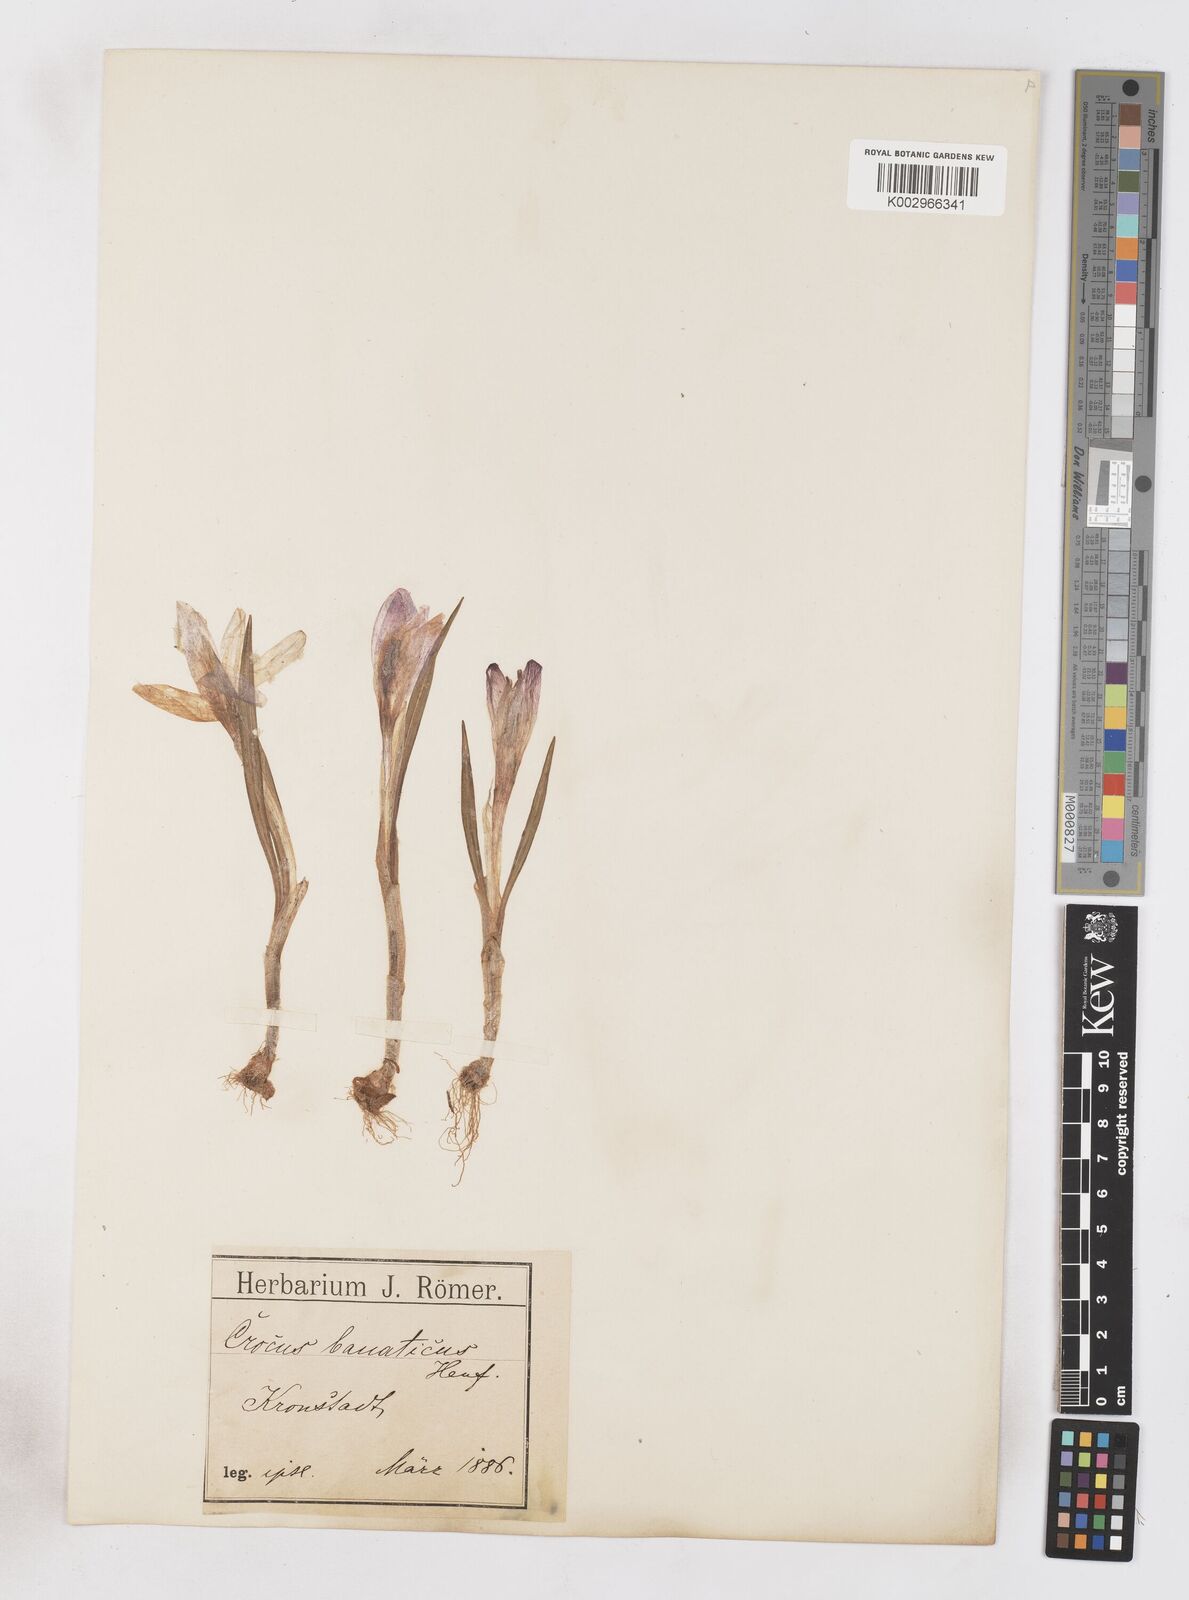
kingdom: Plantae
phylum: Tracheophyta
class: Liliopsida
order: Asparagales
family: Iridaceae
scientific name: Iridaceae
